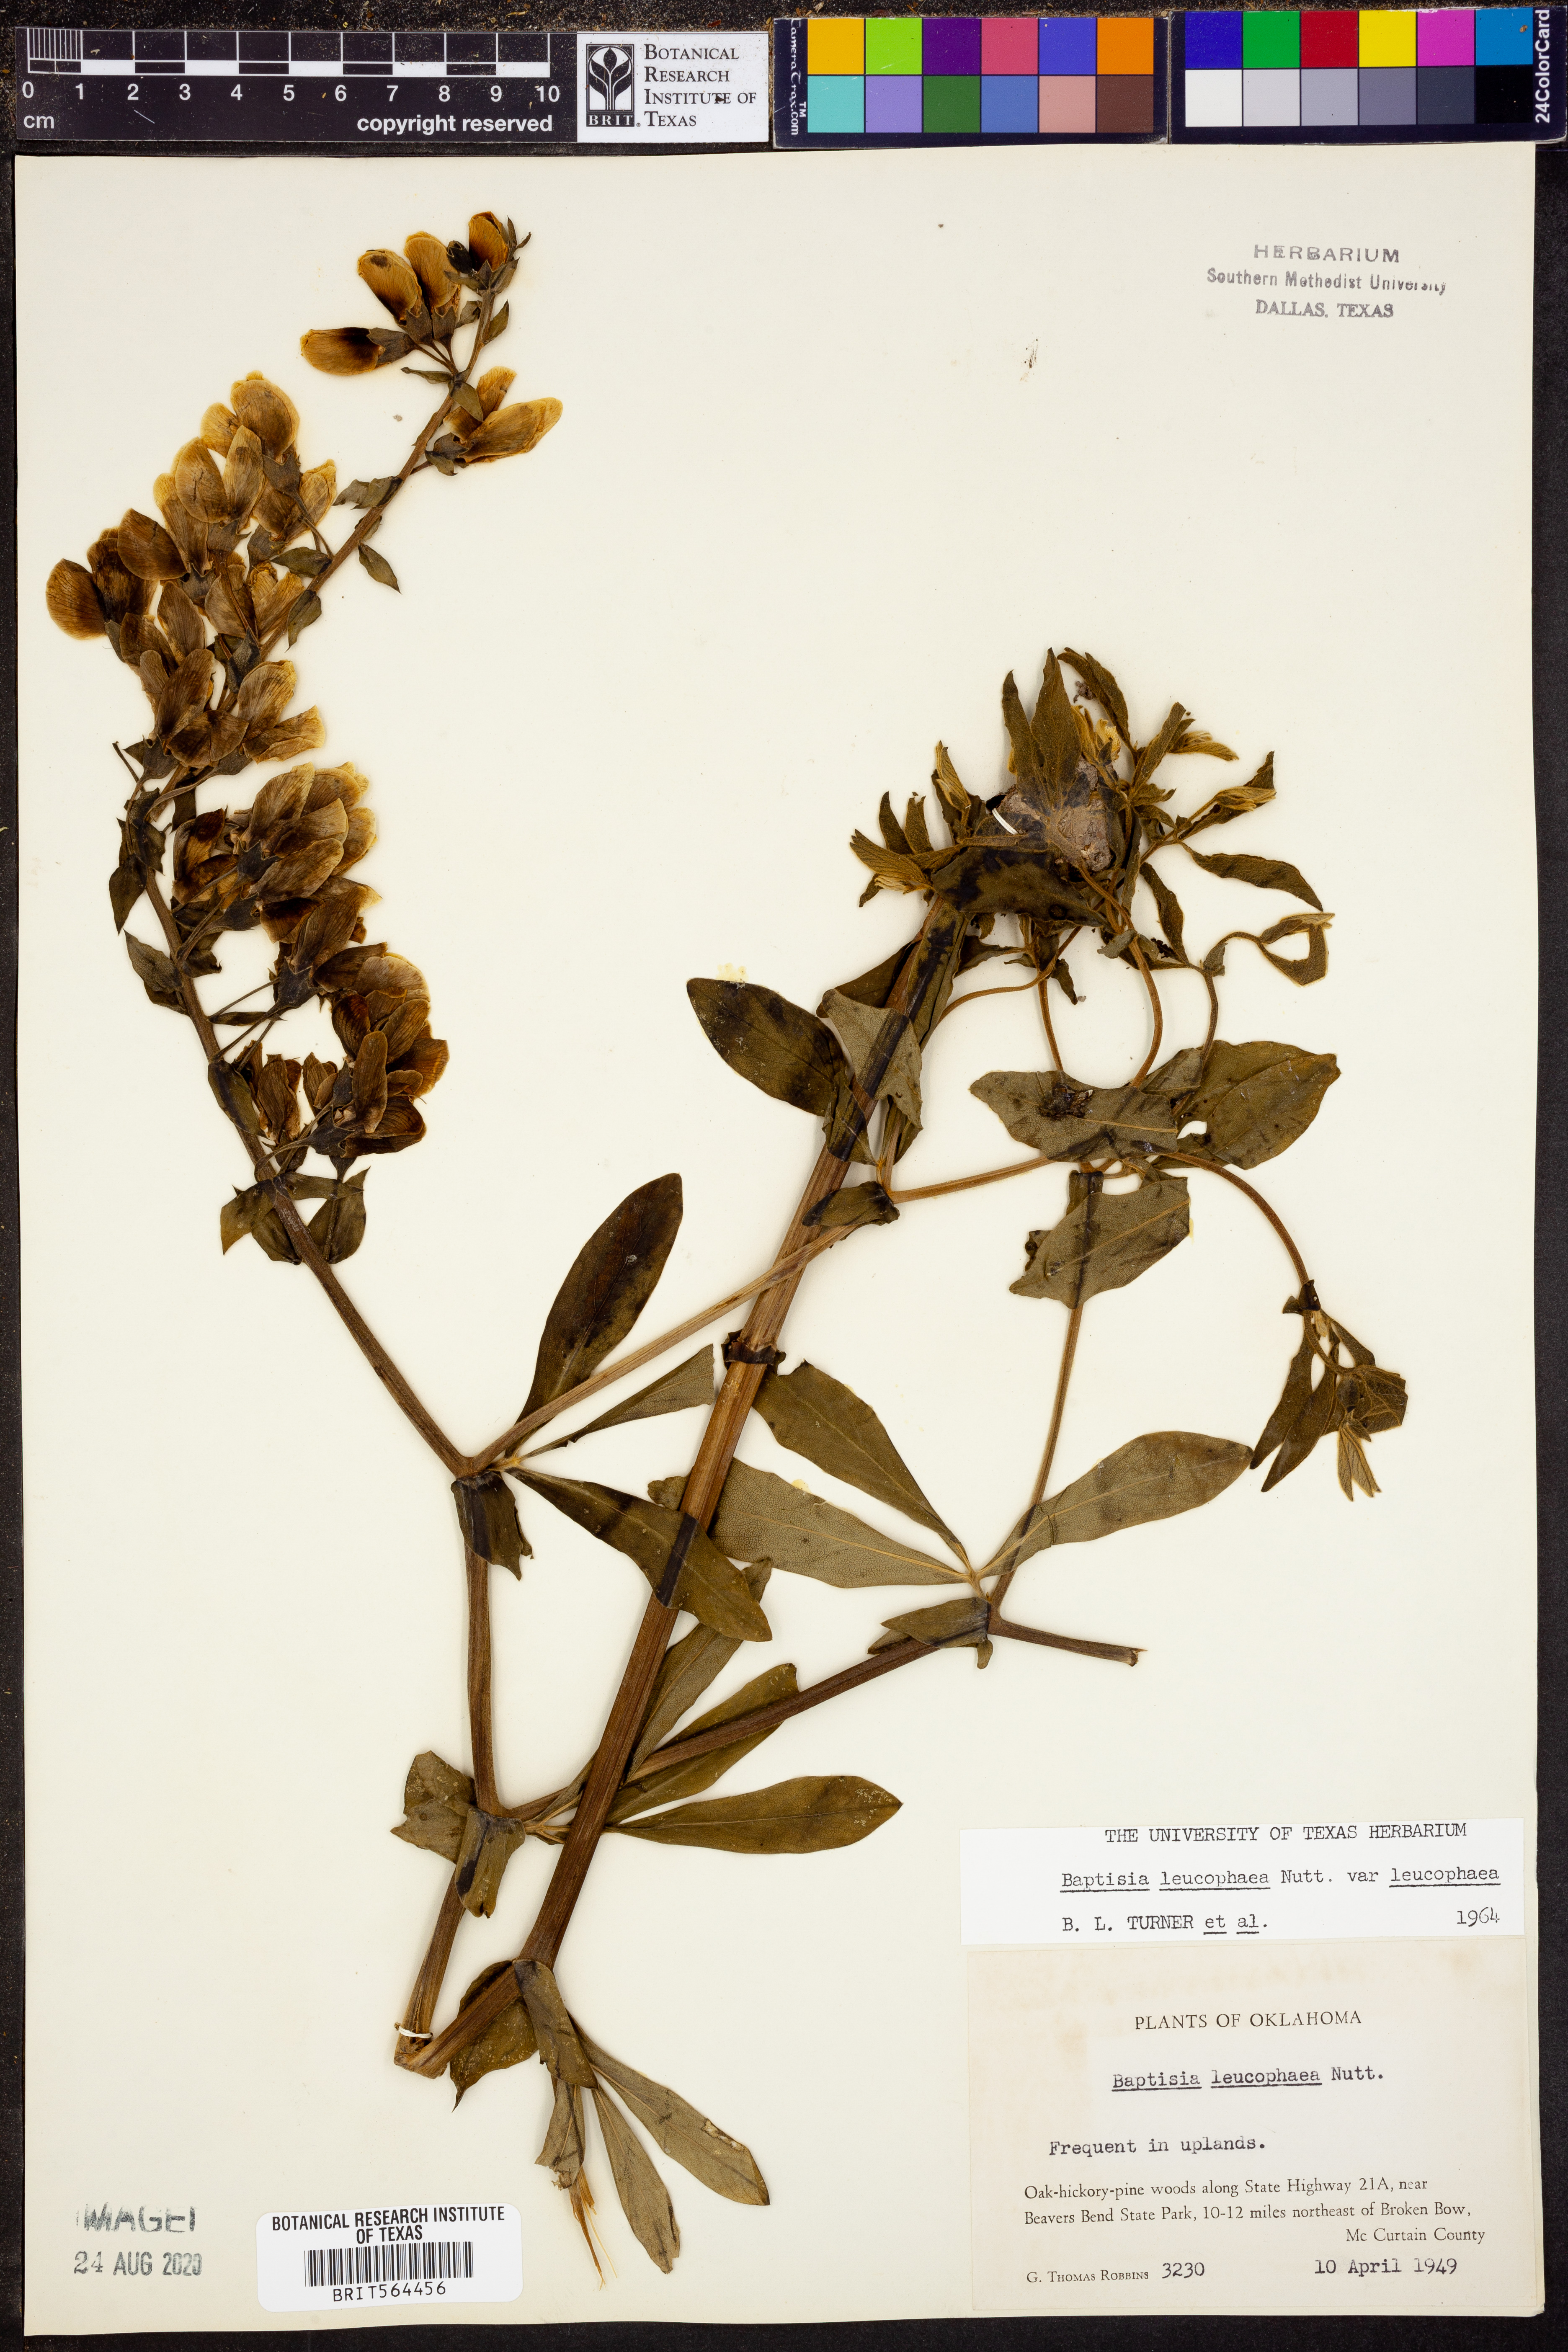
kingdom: Plantae
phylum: Tracheophyta
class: Magnoliopsida
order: Fabales
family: Fabaceae
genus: Baptisia
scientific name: Baptisia bracteata
